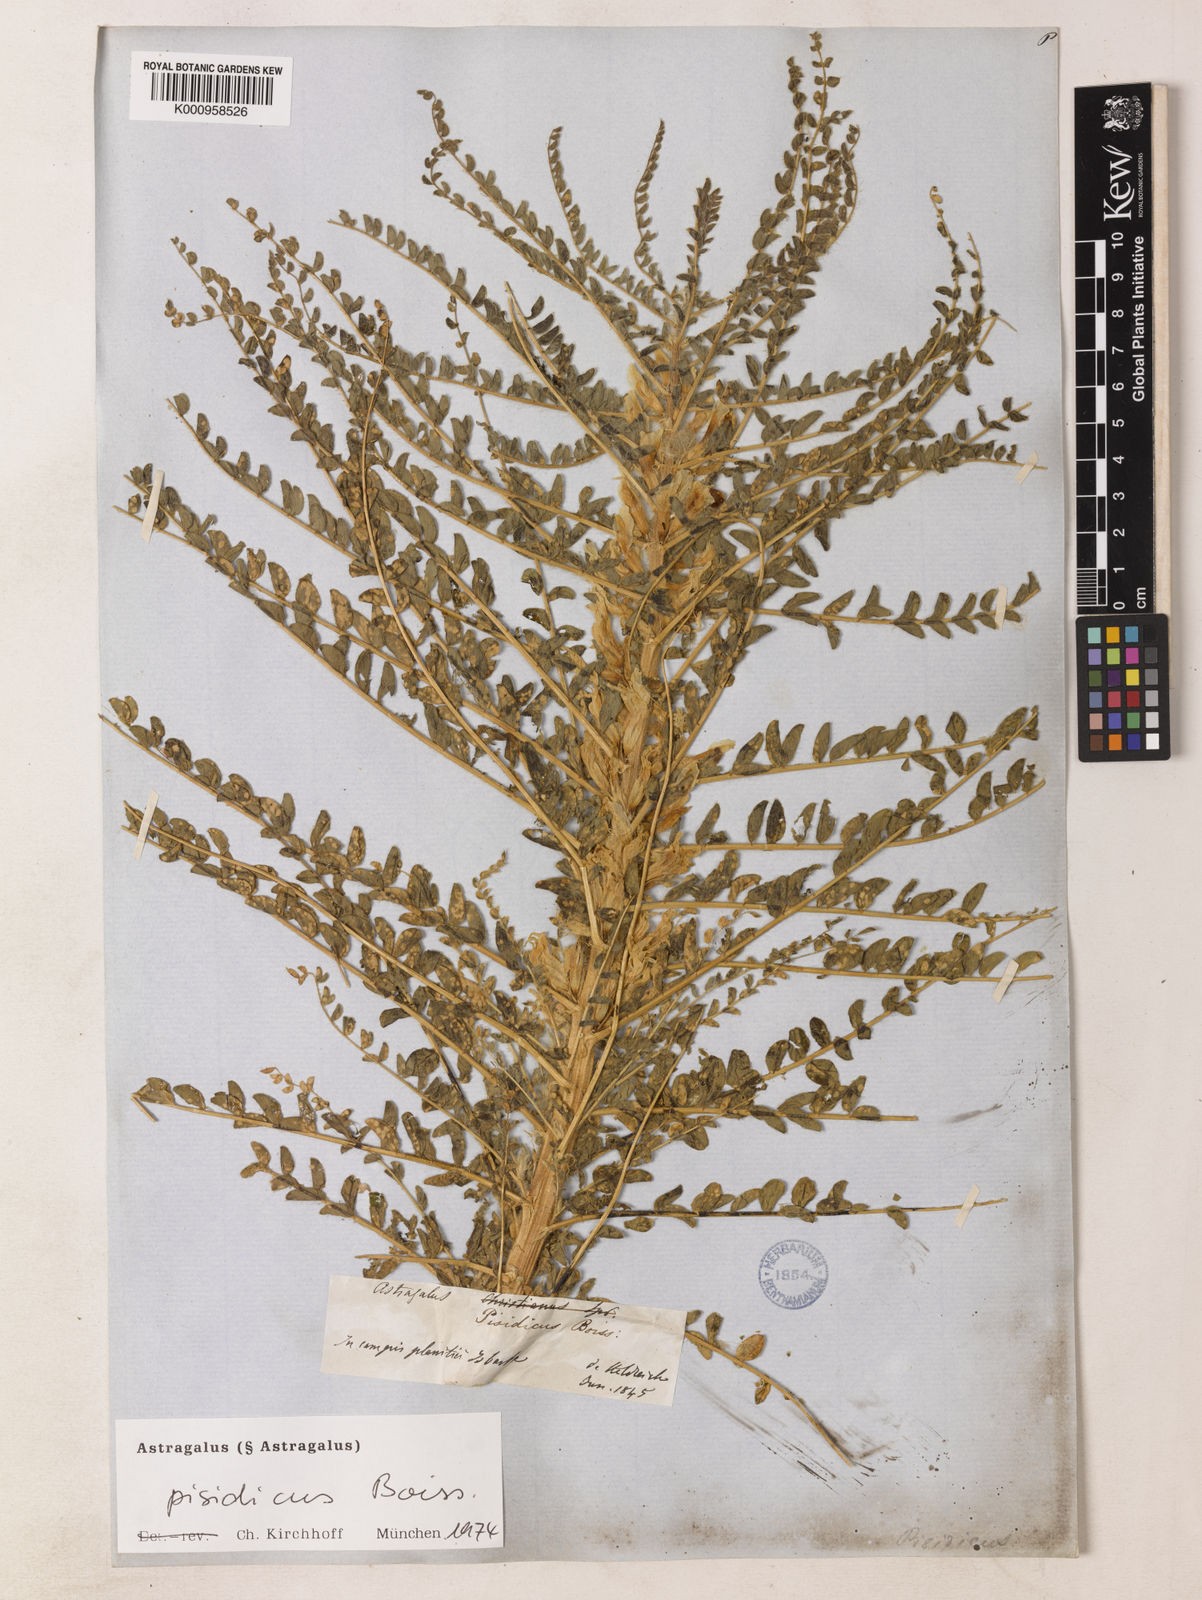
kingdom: Plantae
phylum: Tracheophyta
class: Magnoliopsida
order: Fabales
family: Fabaceae
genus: Astragalus
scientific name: Astragalus
